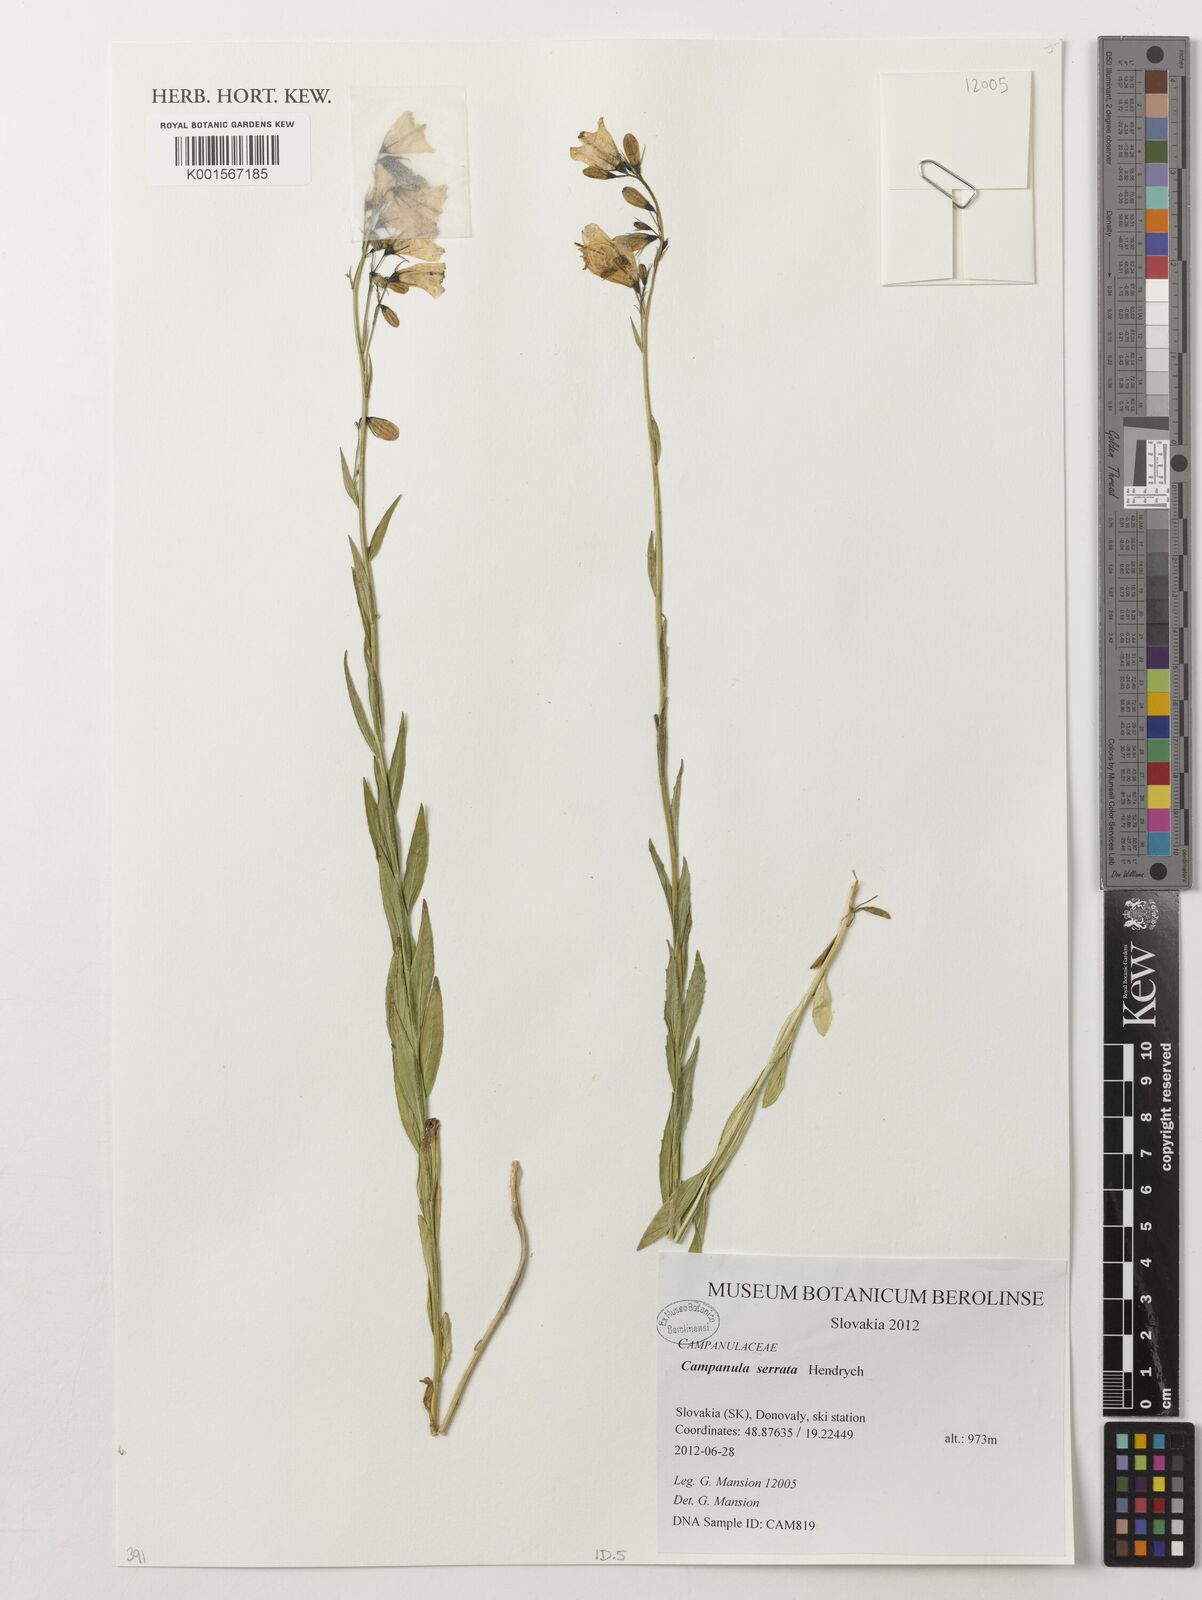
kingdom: Plantae
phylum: Tracheophyta
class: Magnoliopsida
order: Asterales
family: Campanulaceae
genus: Campanula
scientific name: Campanula serrata
